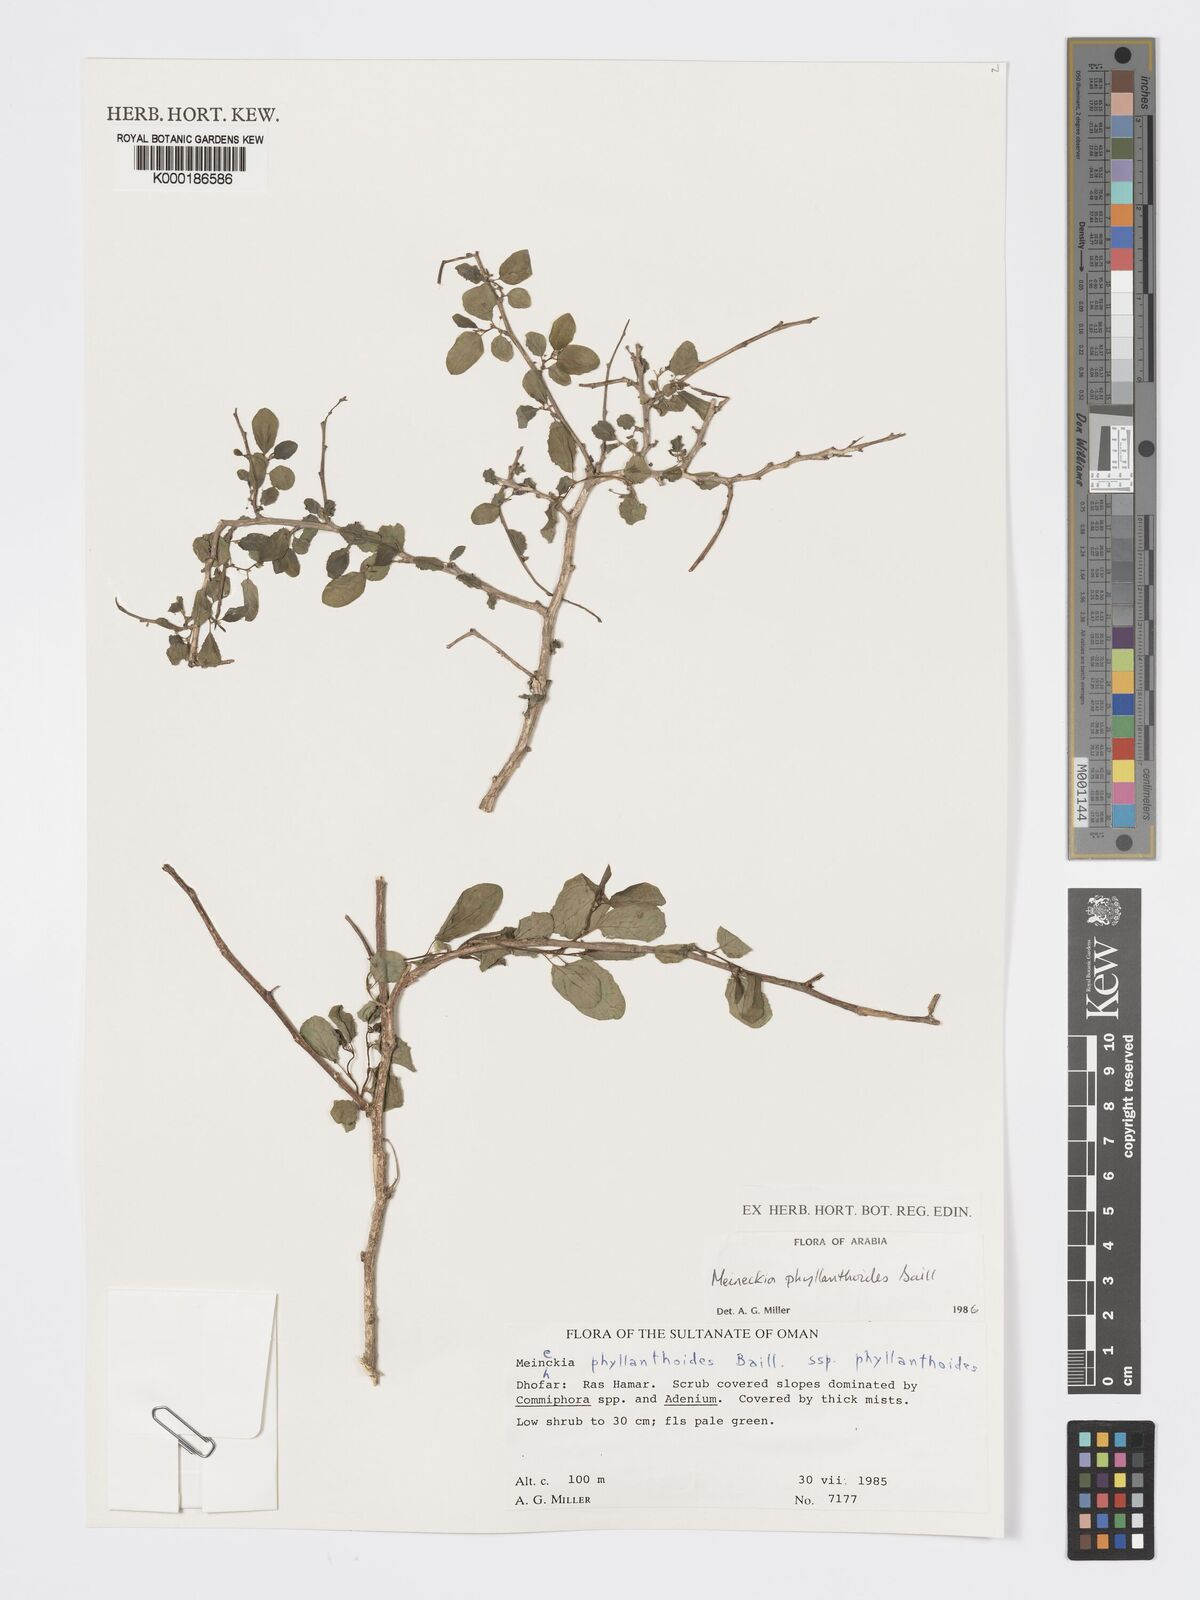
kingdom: Plantae
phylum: Tracheophyta
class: Magnoliopsida
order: Malpighiales
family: Phyllanthaceae
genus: Meineckia
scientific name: Meineckia phyllanthoides
